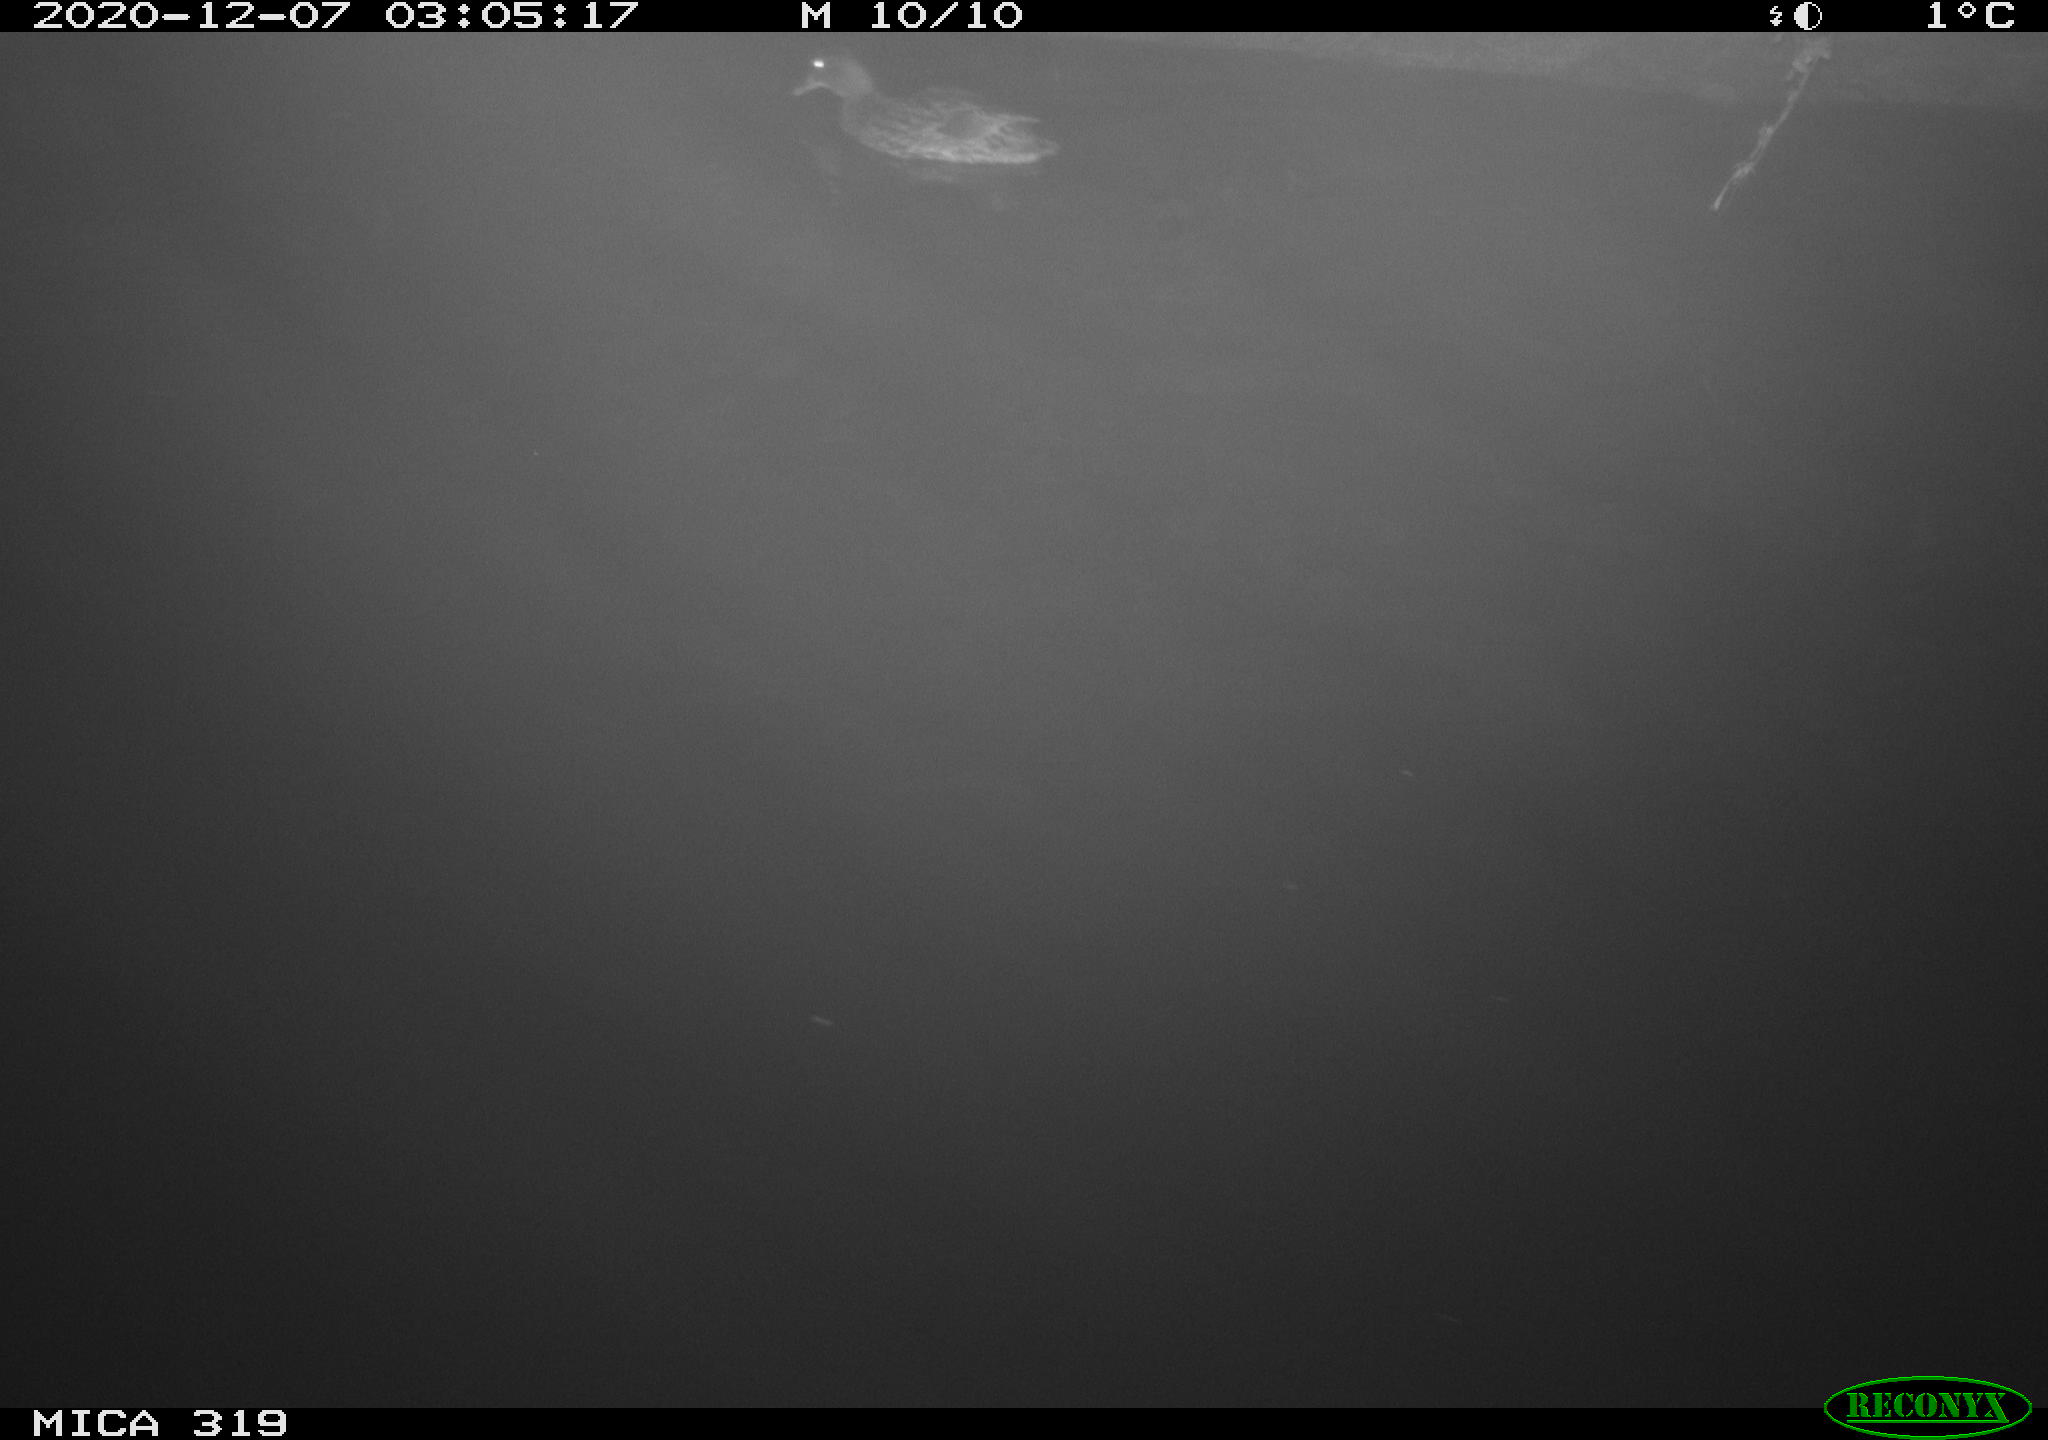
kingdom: Animalia
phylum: Chordata
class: Aves
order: Anseriformes
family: Anatidae
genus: Anas
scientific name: Anas platyrhynchos
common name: Mallard
